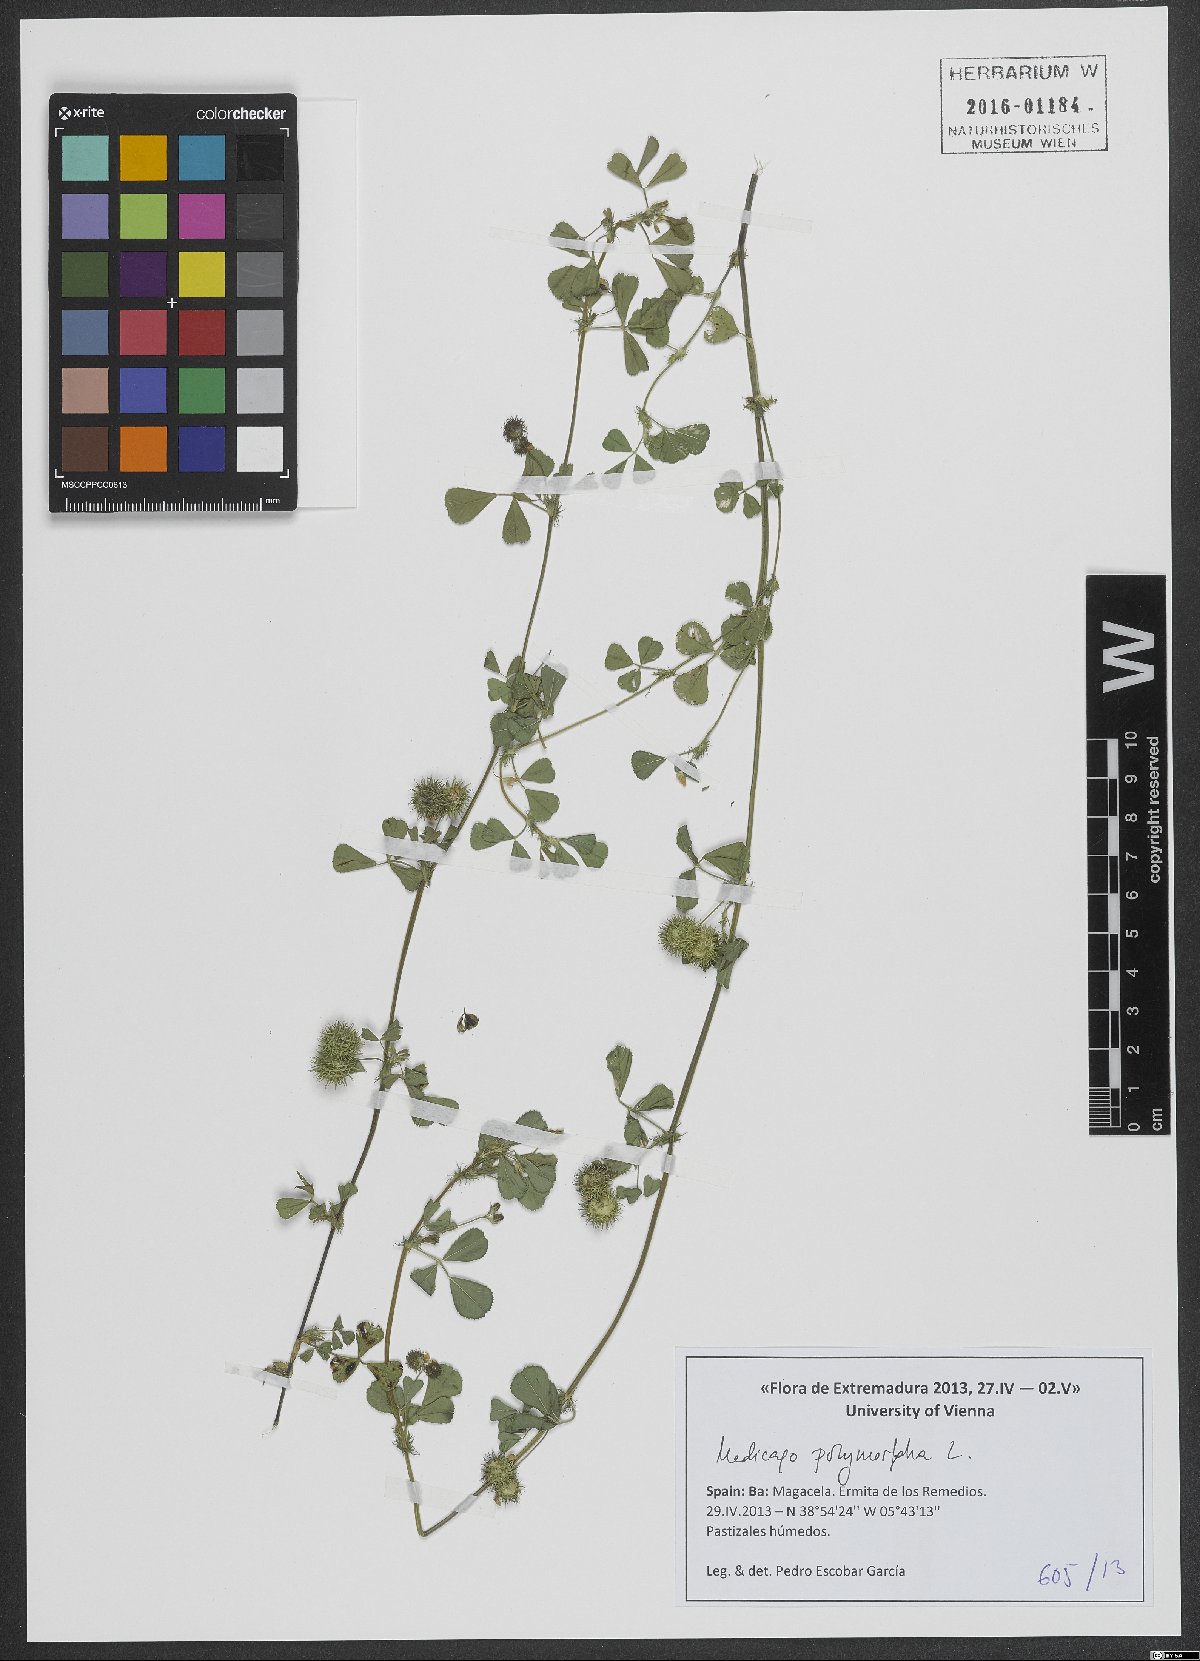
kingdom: Plantae
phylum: Tracheophyta
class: Magnoliopsida
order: Fabales
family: Fabaceae
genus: Medicago
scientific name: Medicago polymorpha
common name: Burclover
